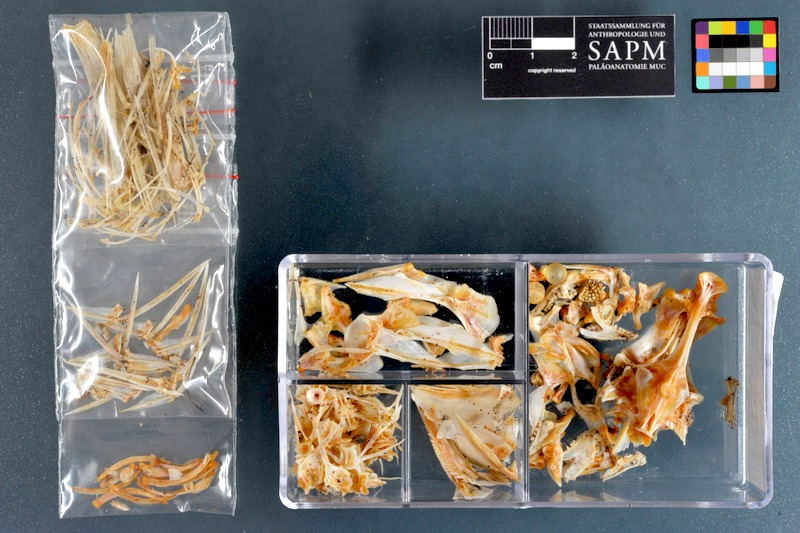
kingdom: Animalia
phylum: Chordata
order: Perciformes
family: Haemulidae
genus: Pomadasys
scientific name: Pomadasys stridens
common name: Striped piggy
